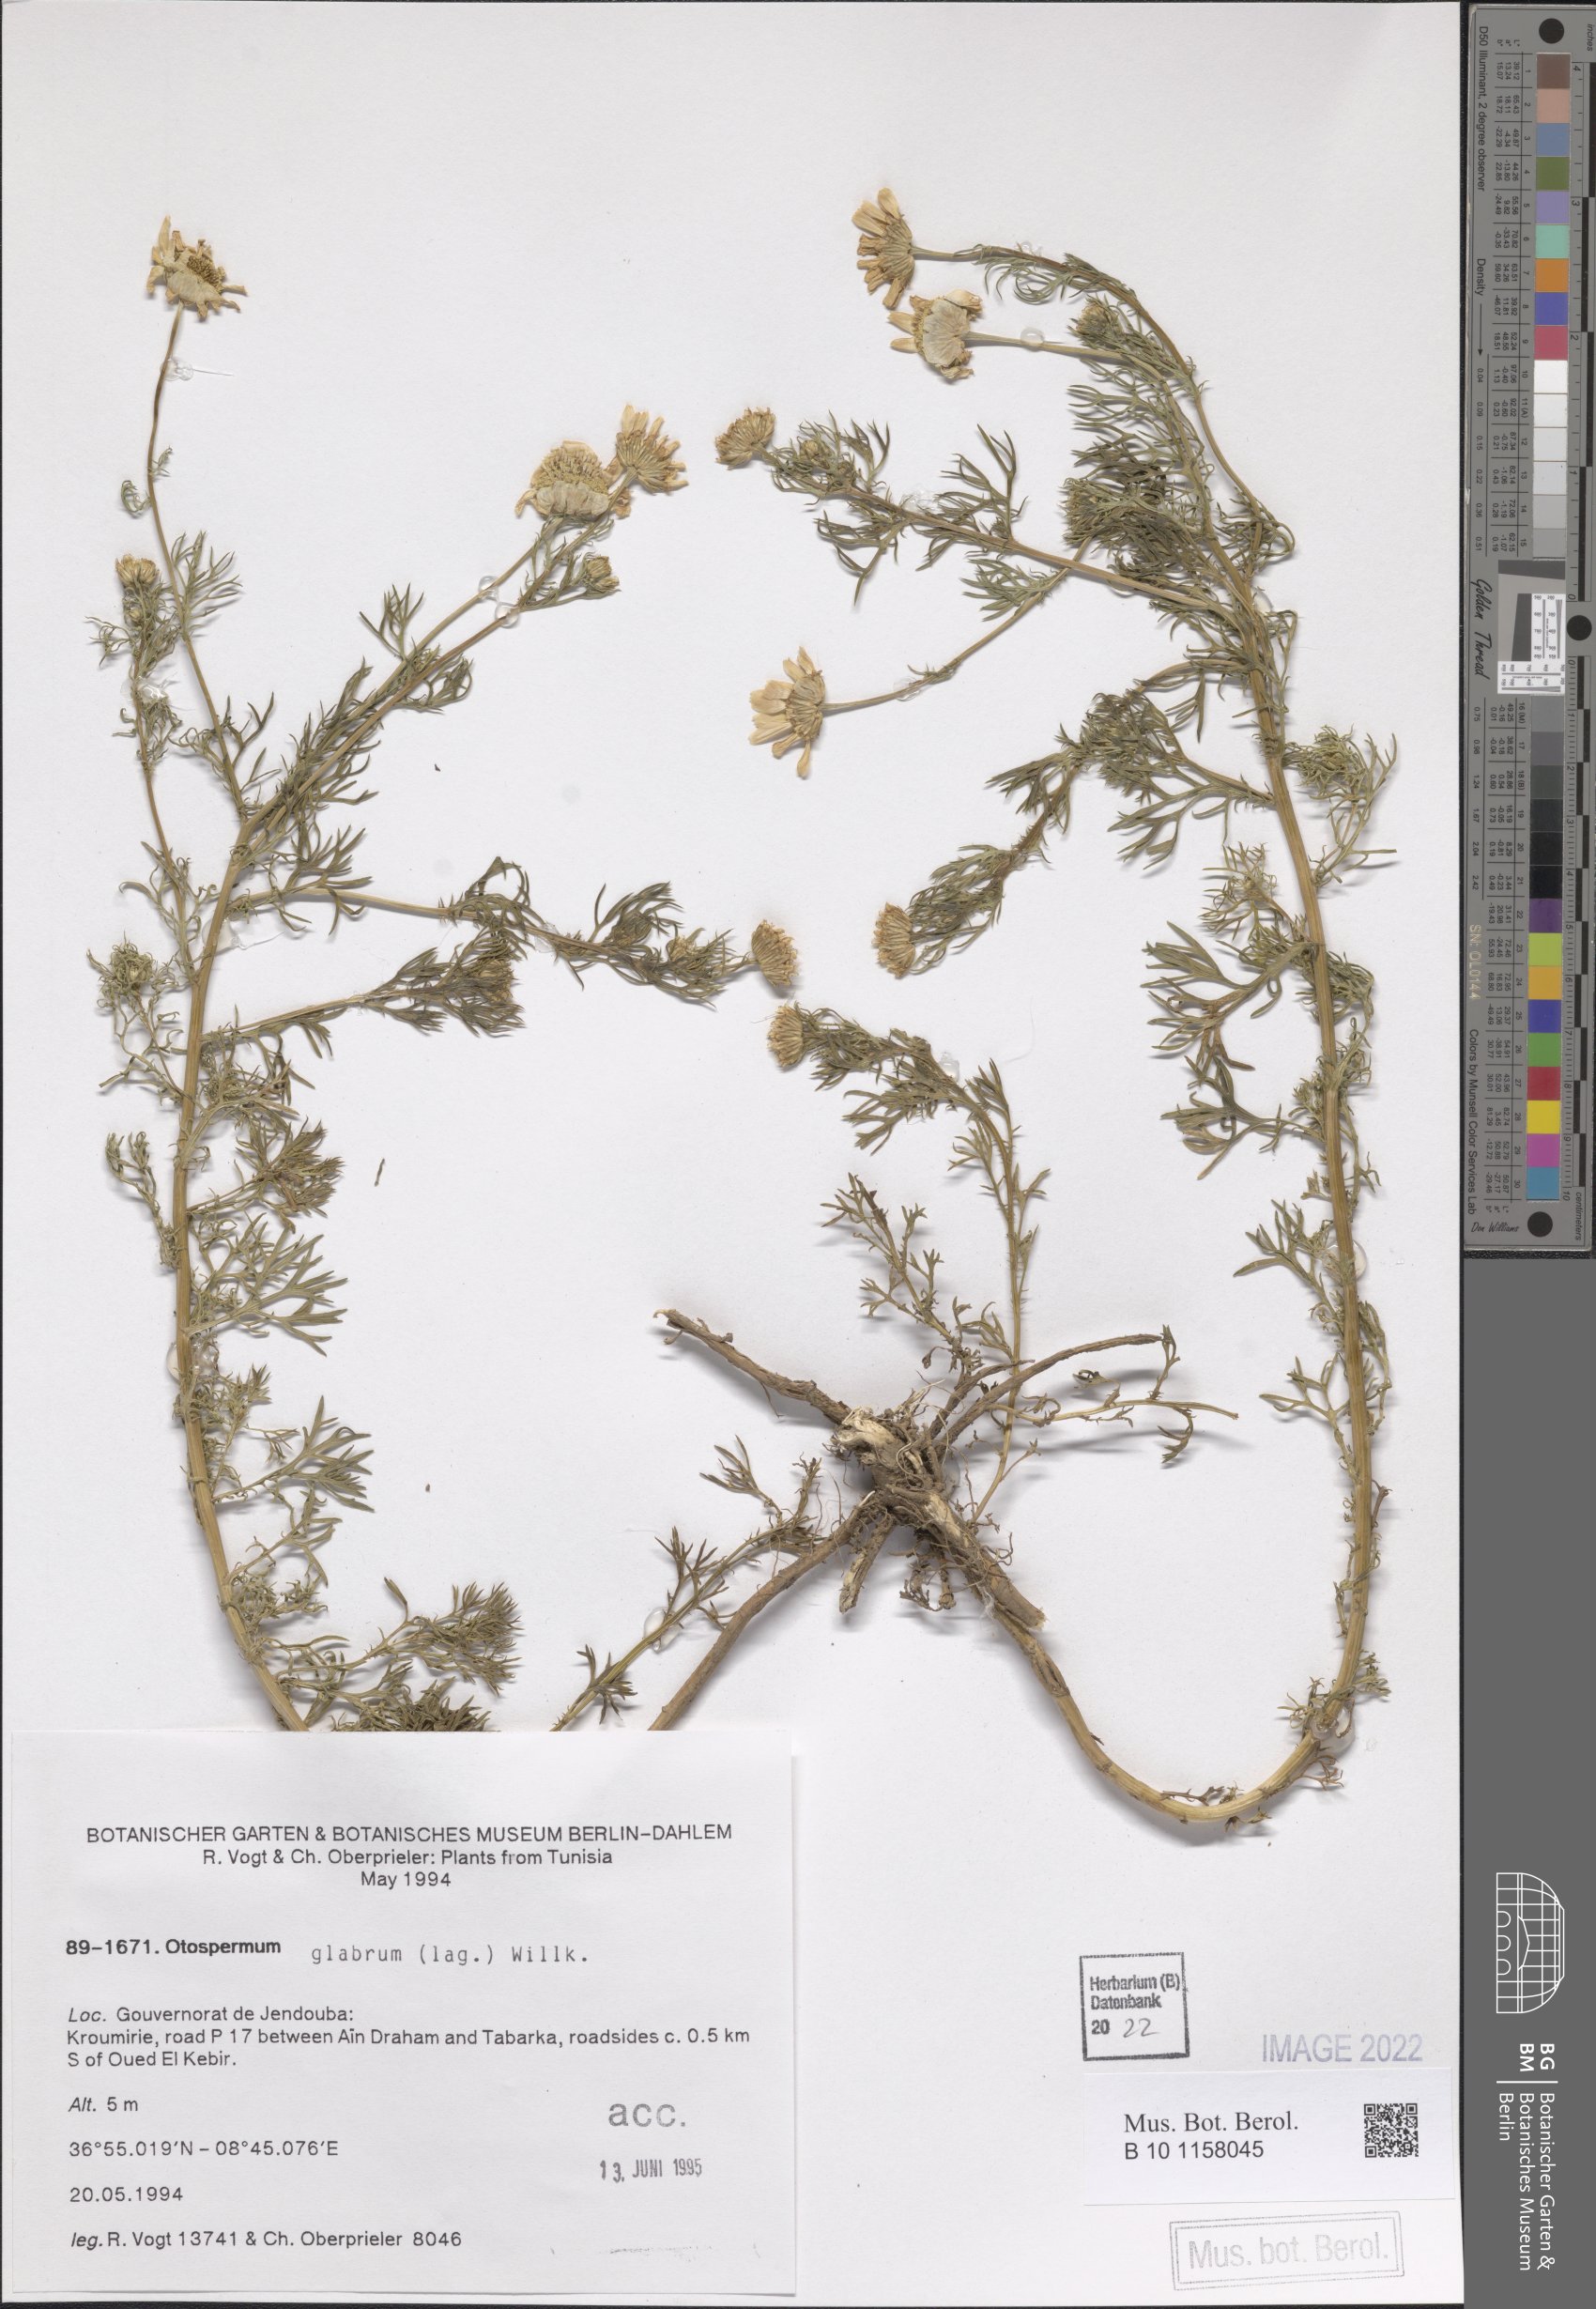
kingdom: Plantae
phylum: Tracheophyta
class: Magnoliopsida
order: Asterales
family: Asteraceae
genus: Otospermum
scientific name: Otospermum glabrum
